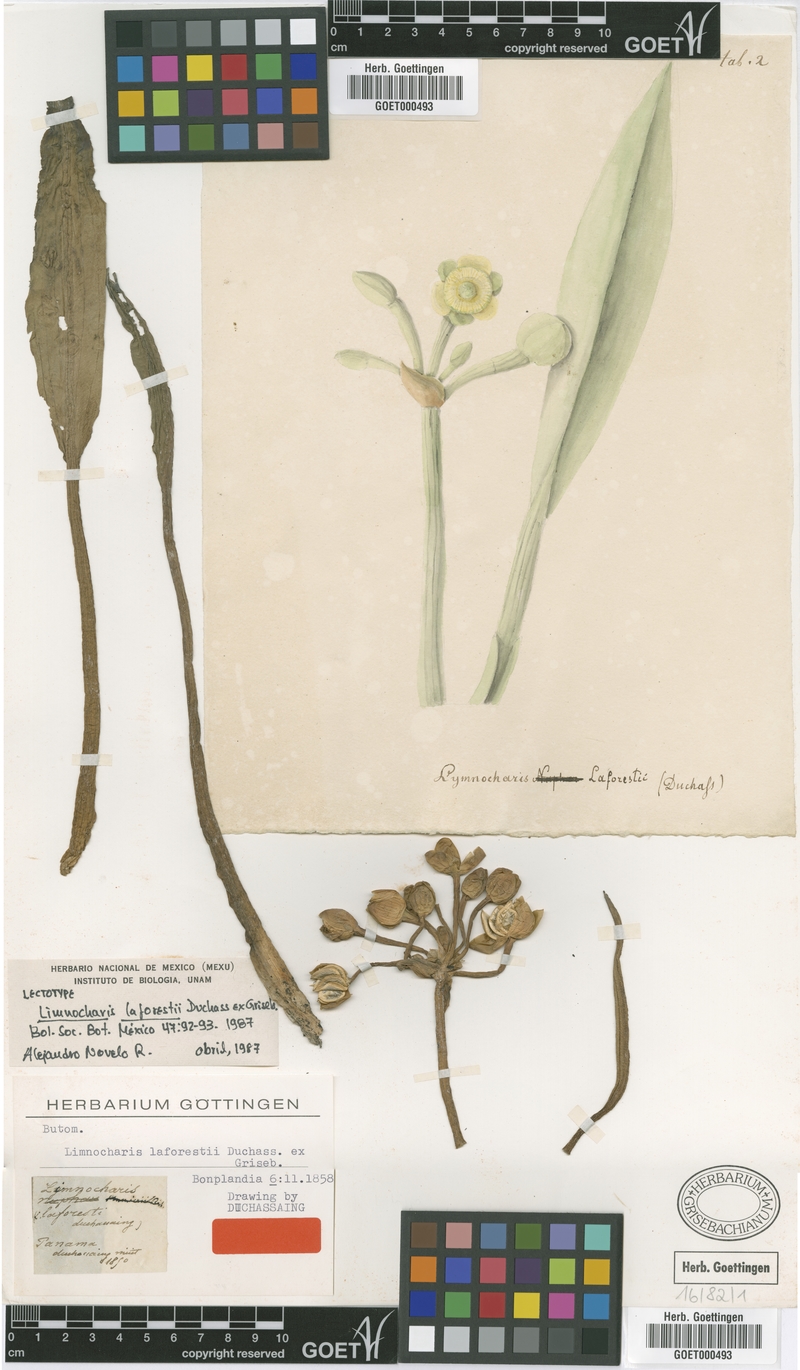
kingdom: Plantae
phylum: Tracheophyta
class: Liliopsida
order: Alismatales
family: Alismataceae
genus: Limnocharis
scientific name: Limnocharis laforestii
